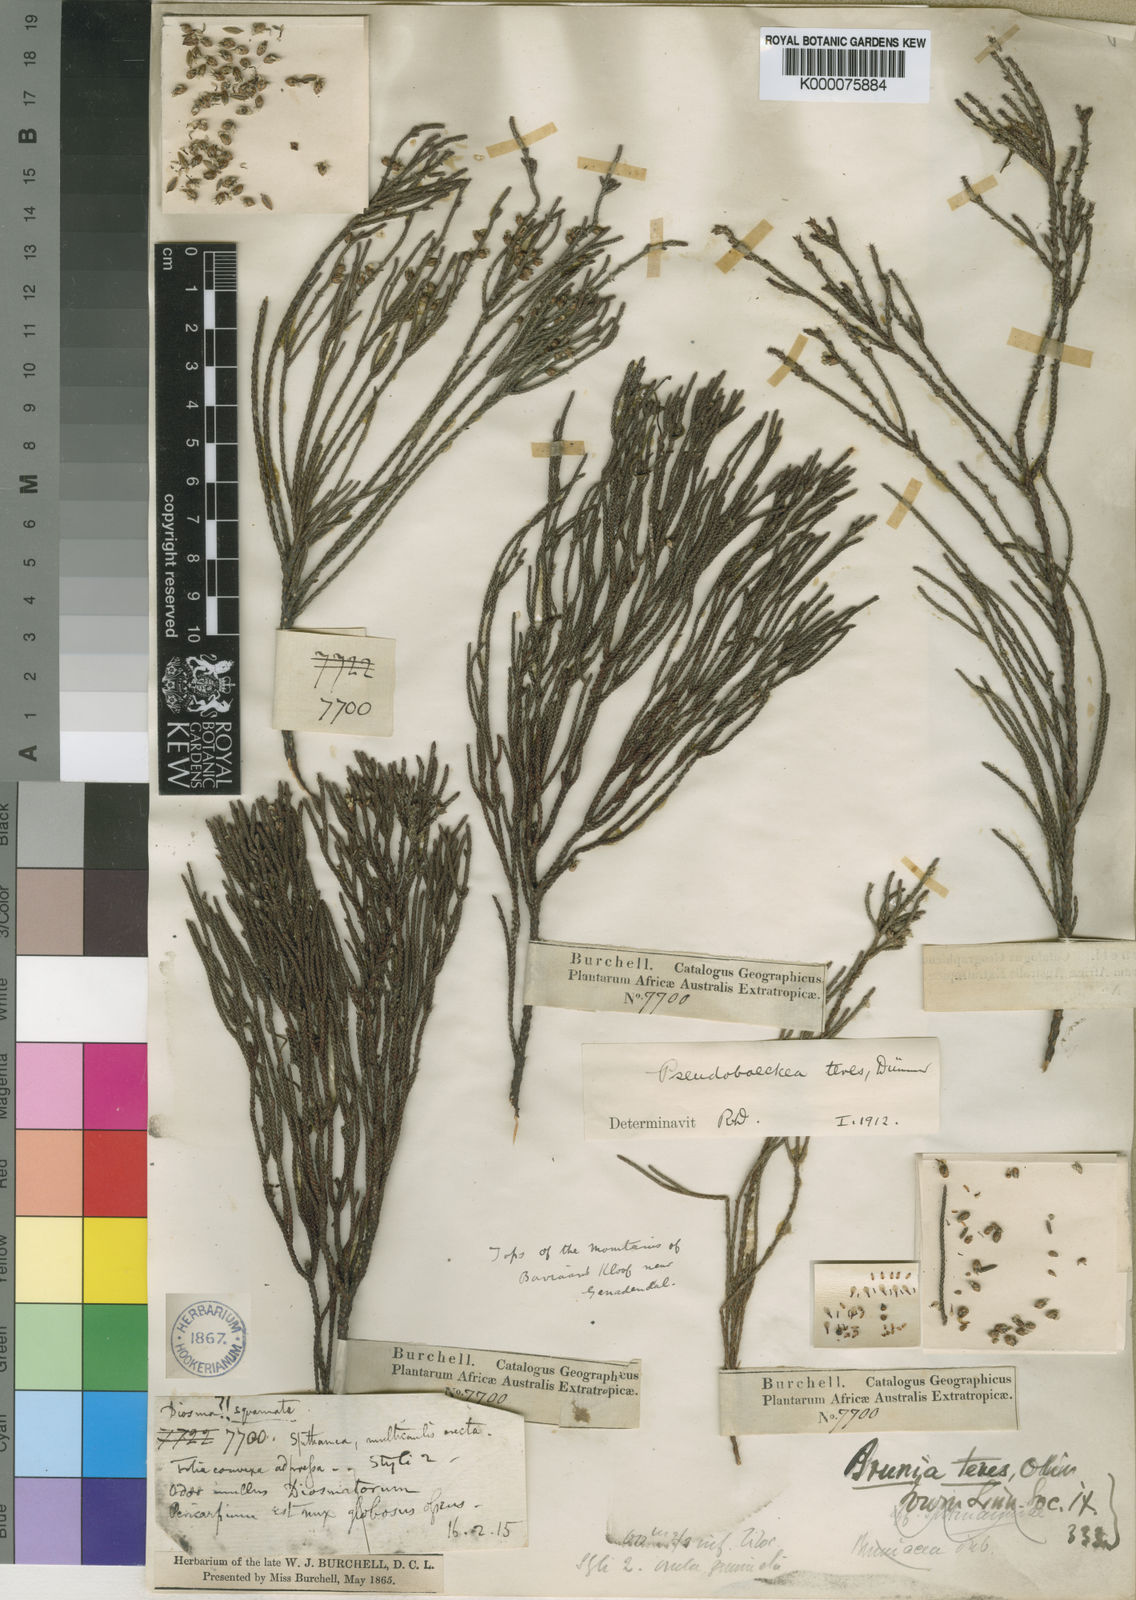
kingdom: Plantae
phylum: Tracheophyta
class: Magnoliopsida
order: Bruniales
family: Bruniaceae
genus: Brunia
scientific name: Brunia
